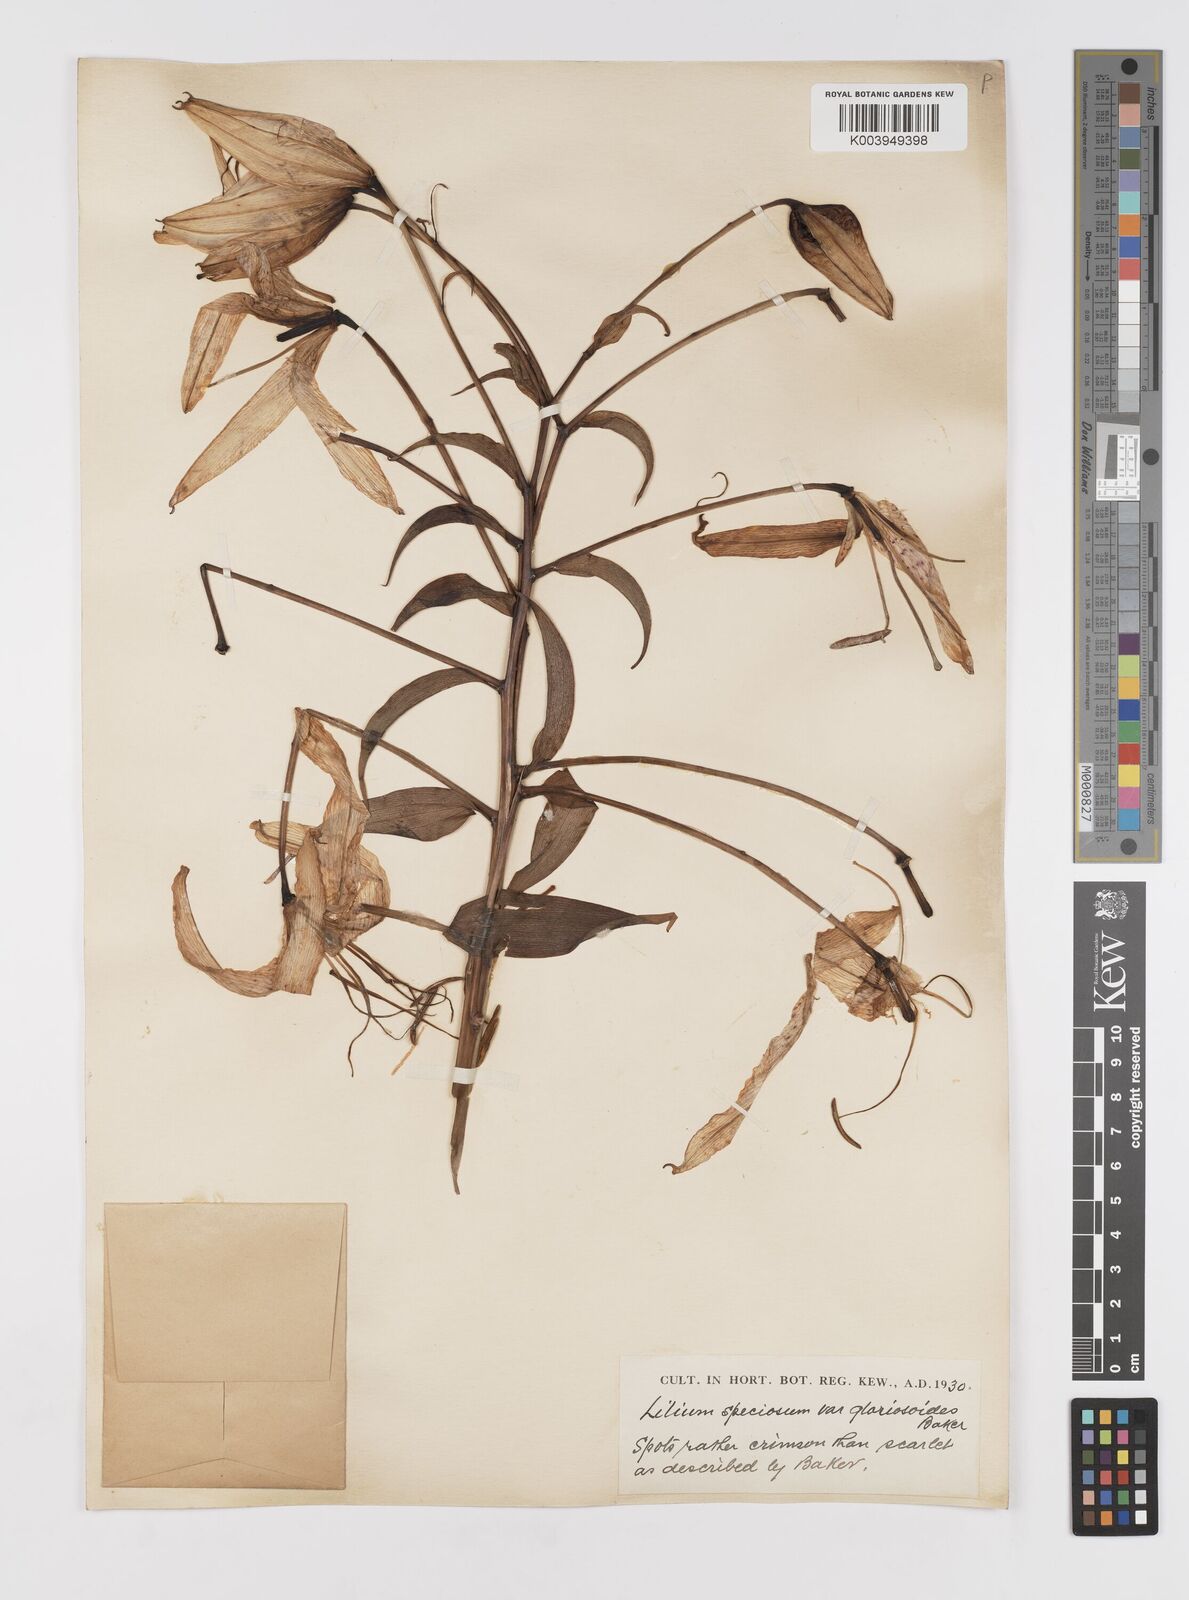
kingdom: Plantae
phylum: Tracheophyta
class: Liliopsida
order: Liliales
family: Liliaceae
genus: Lilium
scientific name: Lilium speciosum
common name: Japanese lily
